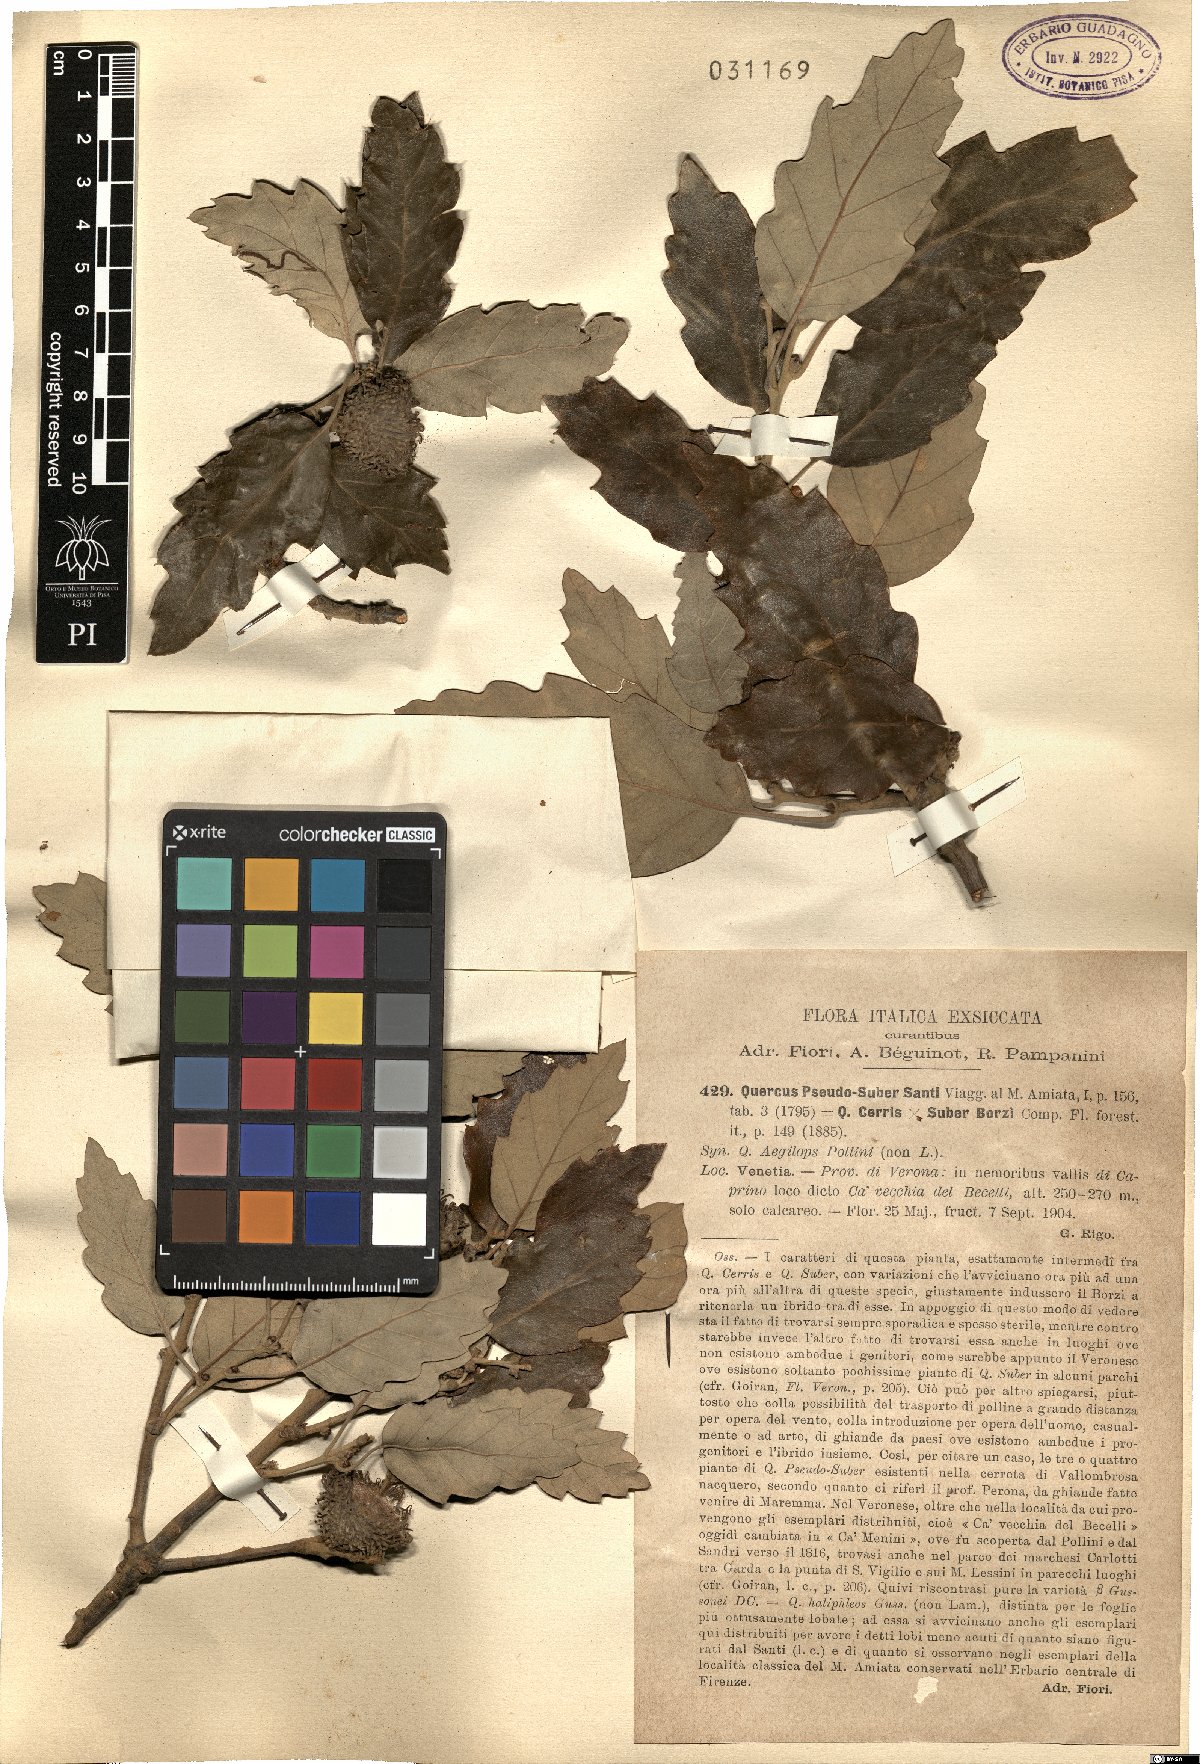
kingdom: Plantae
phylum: Tracheophyta
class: Magnoliopsida
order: Fagales
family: Fagaceae
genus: Quercus
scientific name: Quercus crenata
